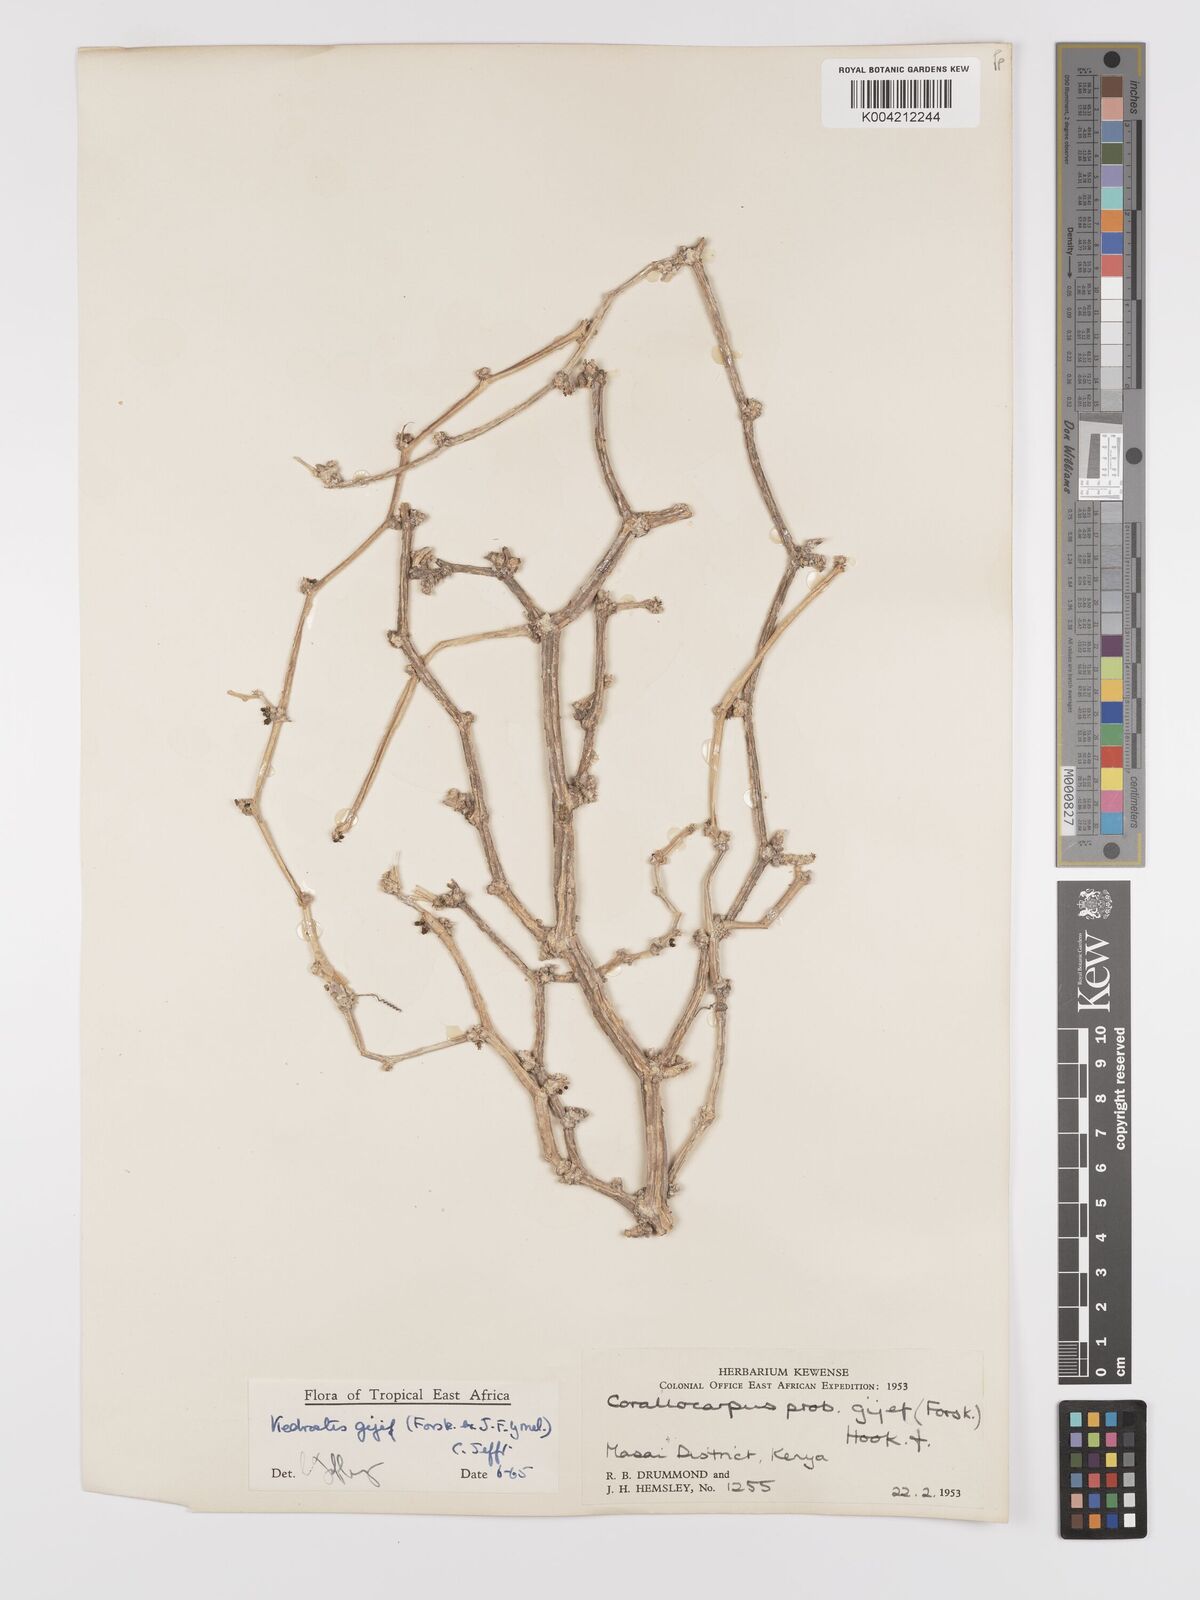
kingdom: Plantae
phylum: Tracheophyta
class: Magnoliopsida
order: Cucurbitales
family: Cucurbitaceae
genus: Kedrostis
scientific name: Kedrostis gijef
